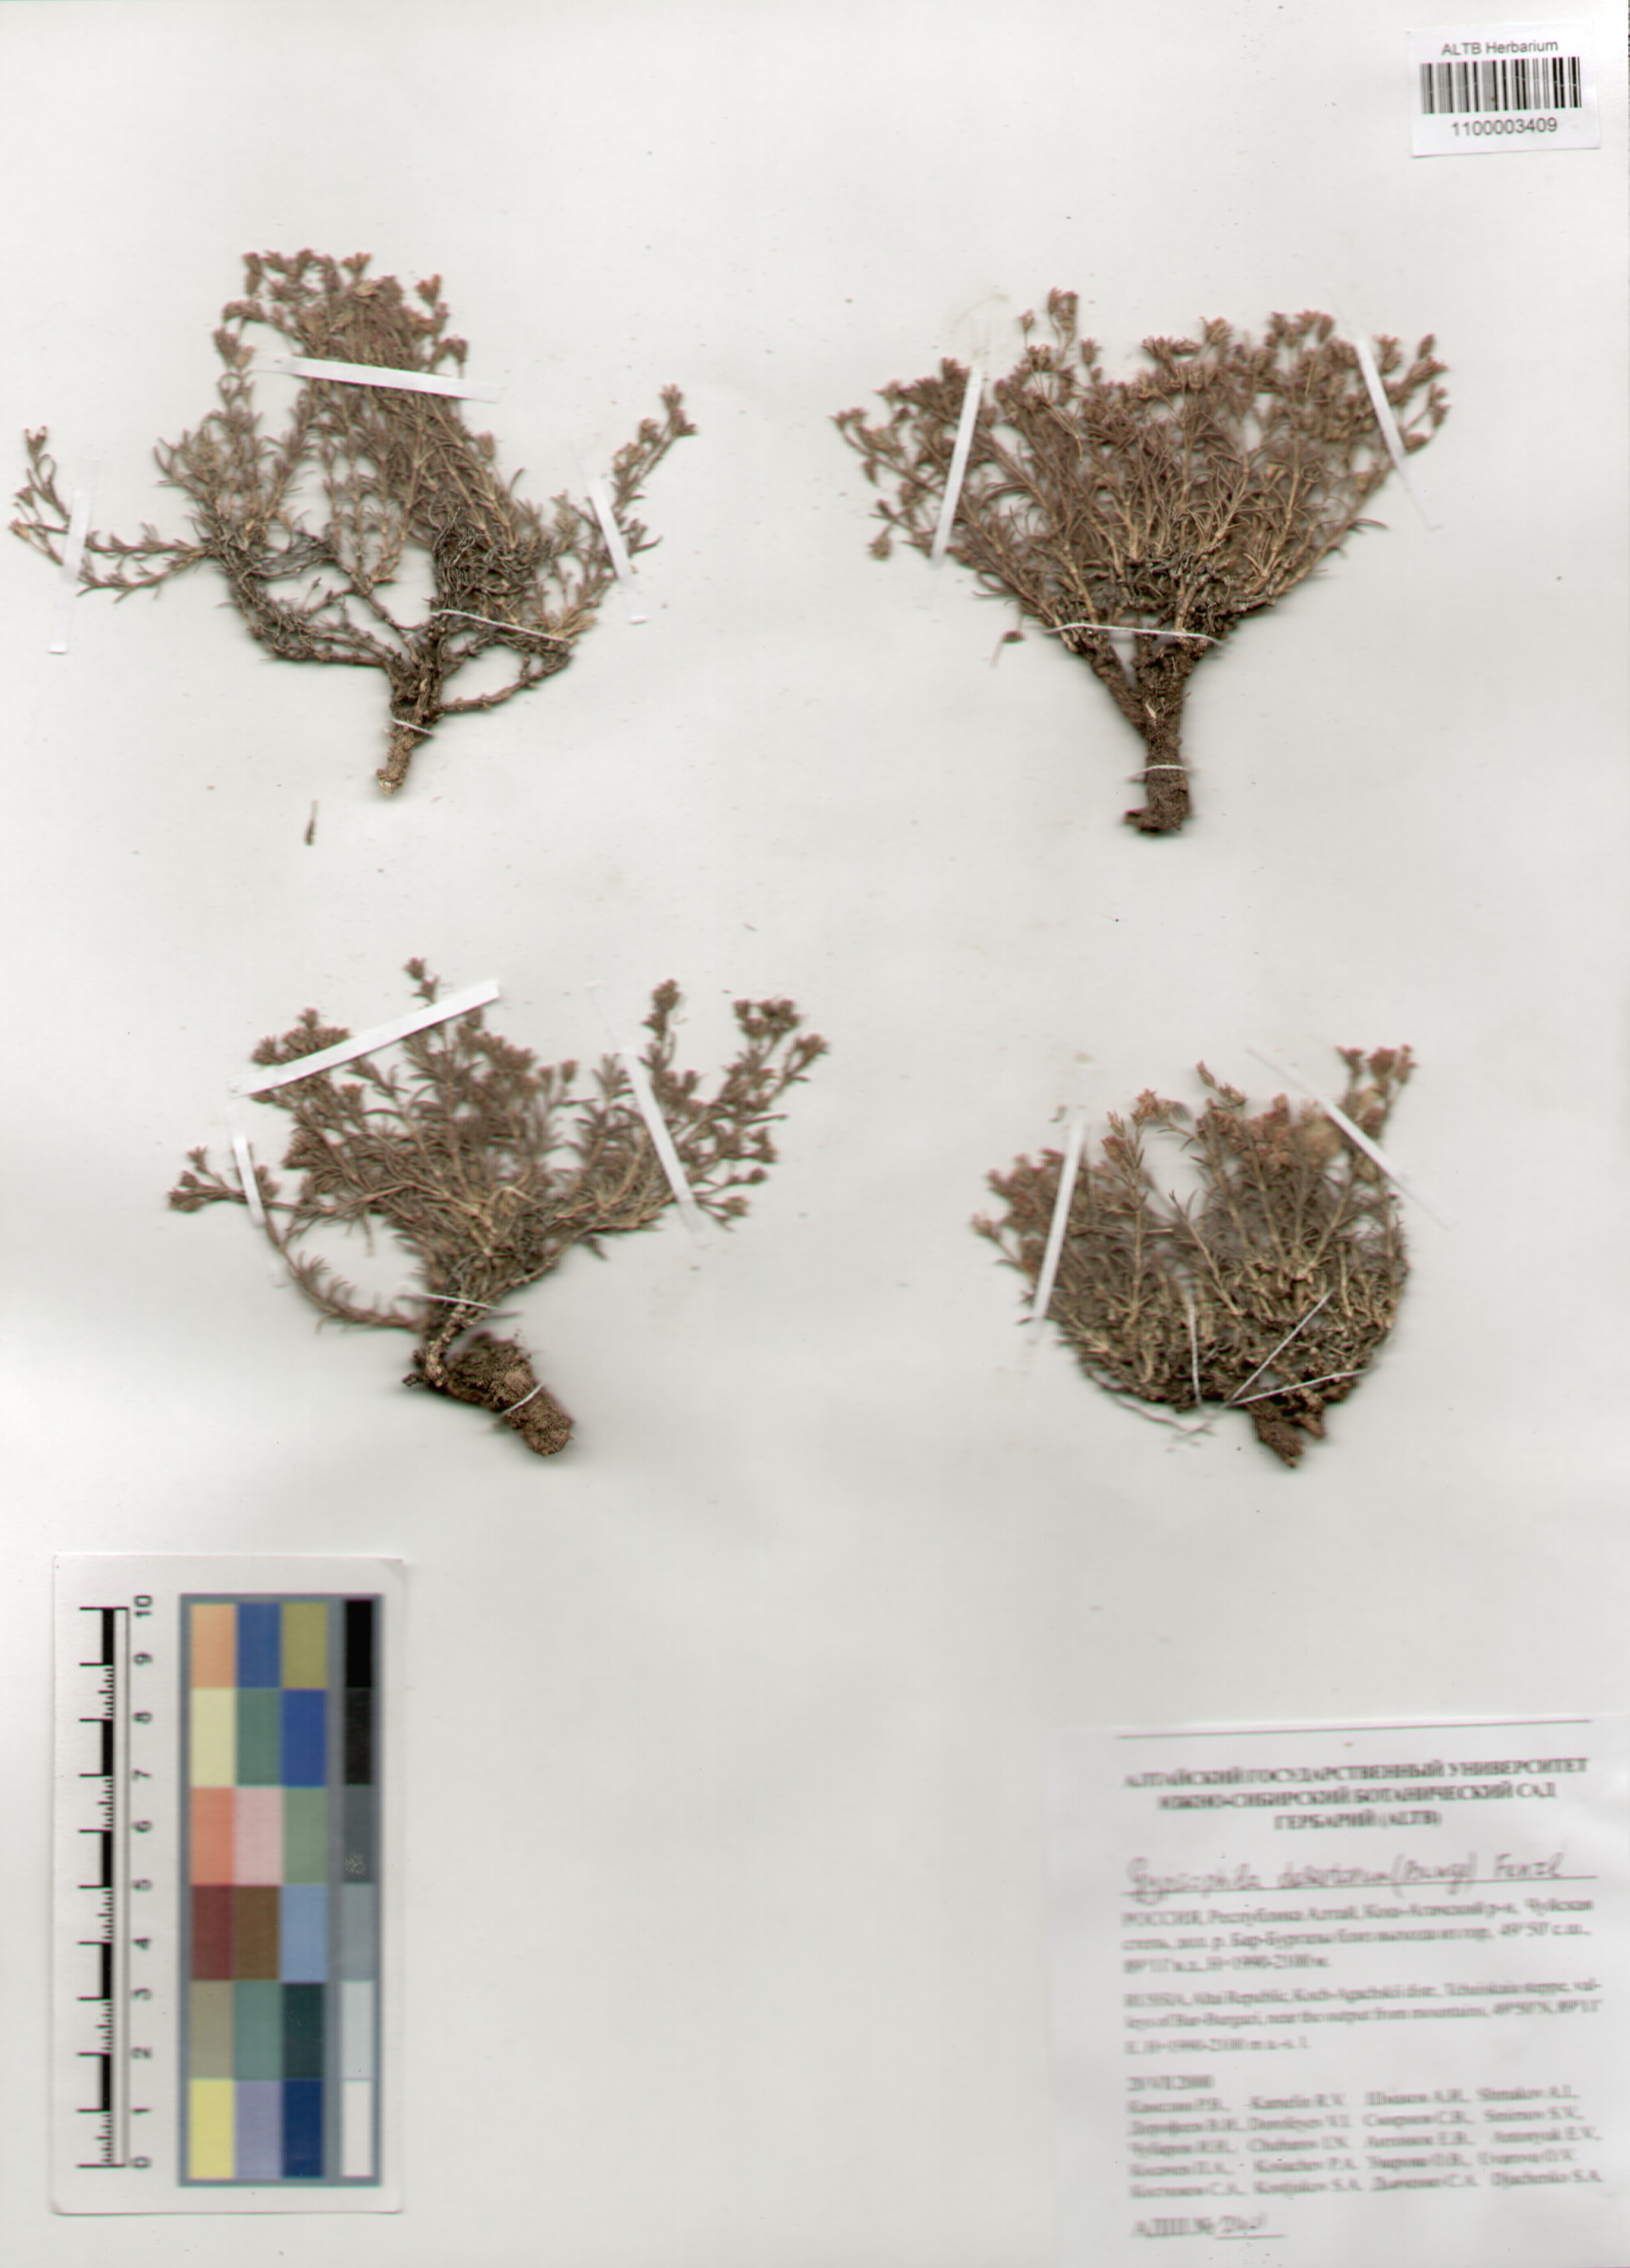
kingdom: Plantae
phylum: Tracheophyta
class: Magnoliopsida
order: Caryophyllales
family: Caryophyllaceae
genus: Heterochroa
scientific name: Heterochroa desertorum
